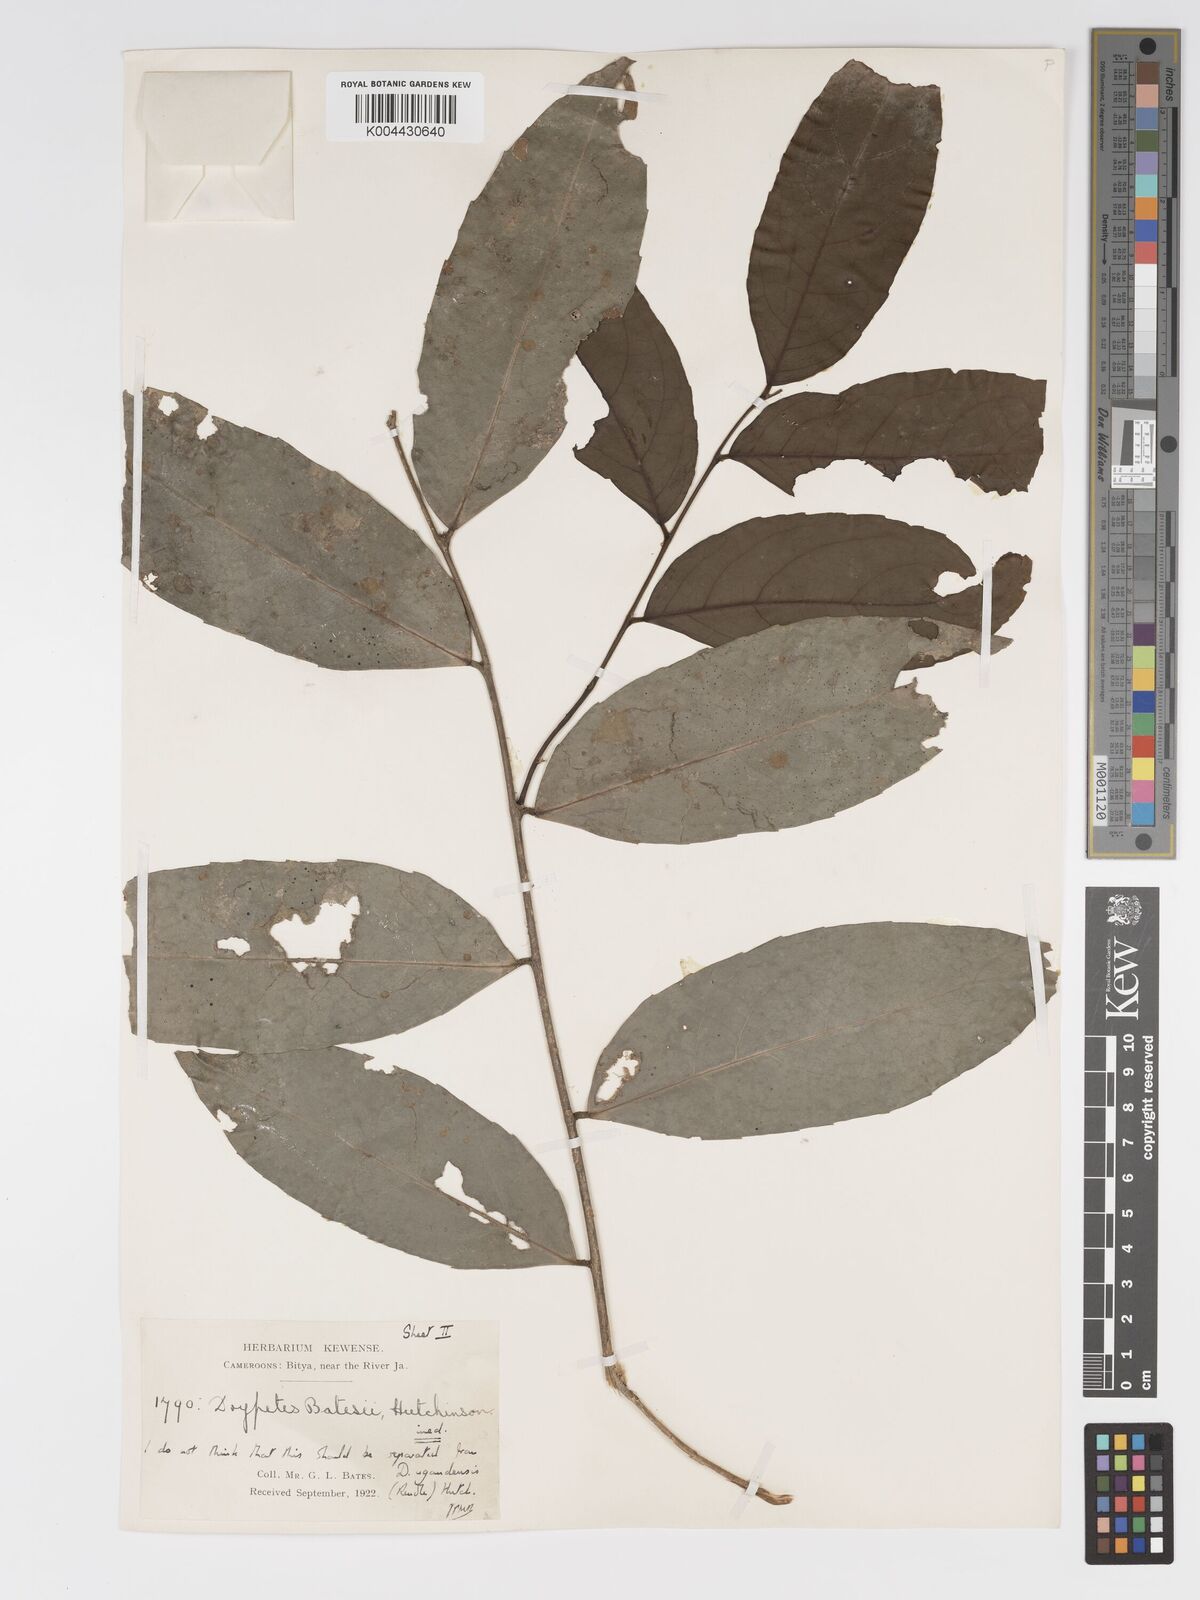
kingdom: Plantae
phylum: Tracheophyta
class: Magnoliopsida
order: Malpighiales
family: Putranjivaceae
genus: Drypetes
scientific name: Drypetes ugandensis
